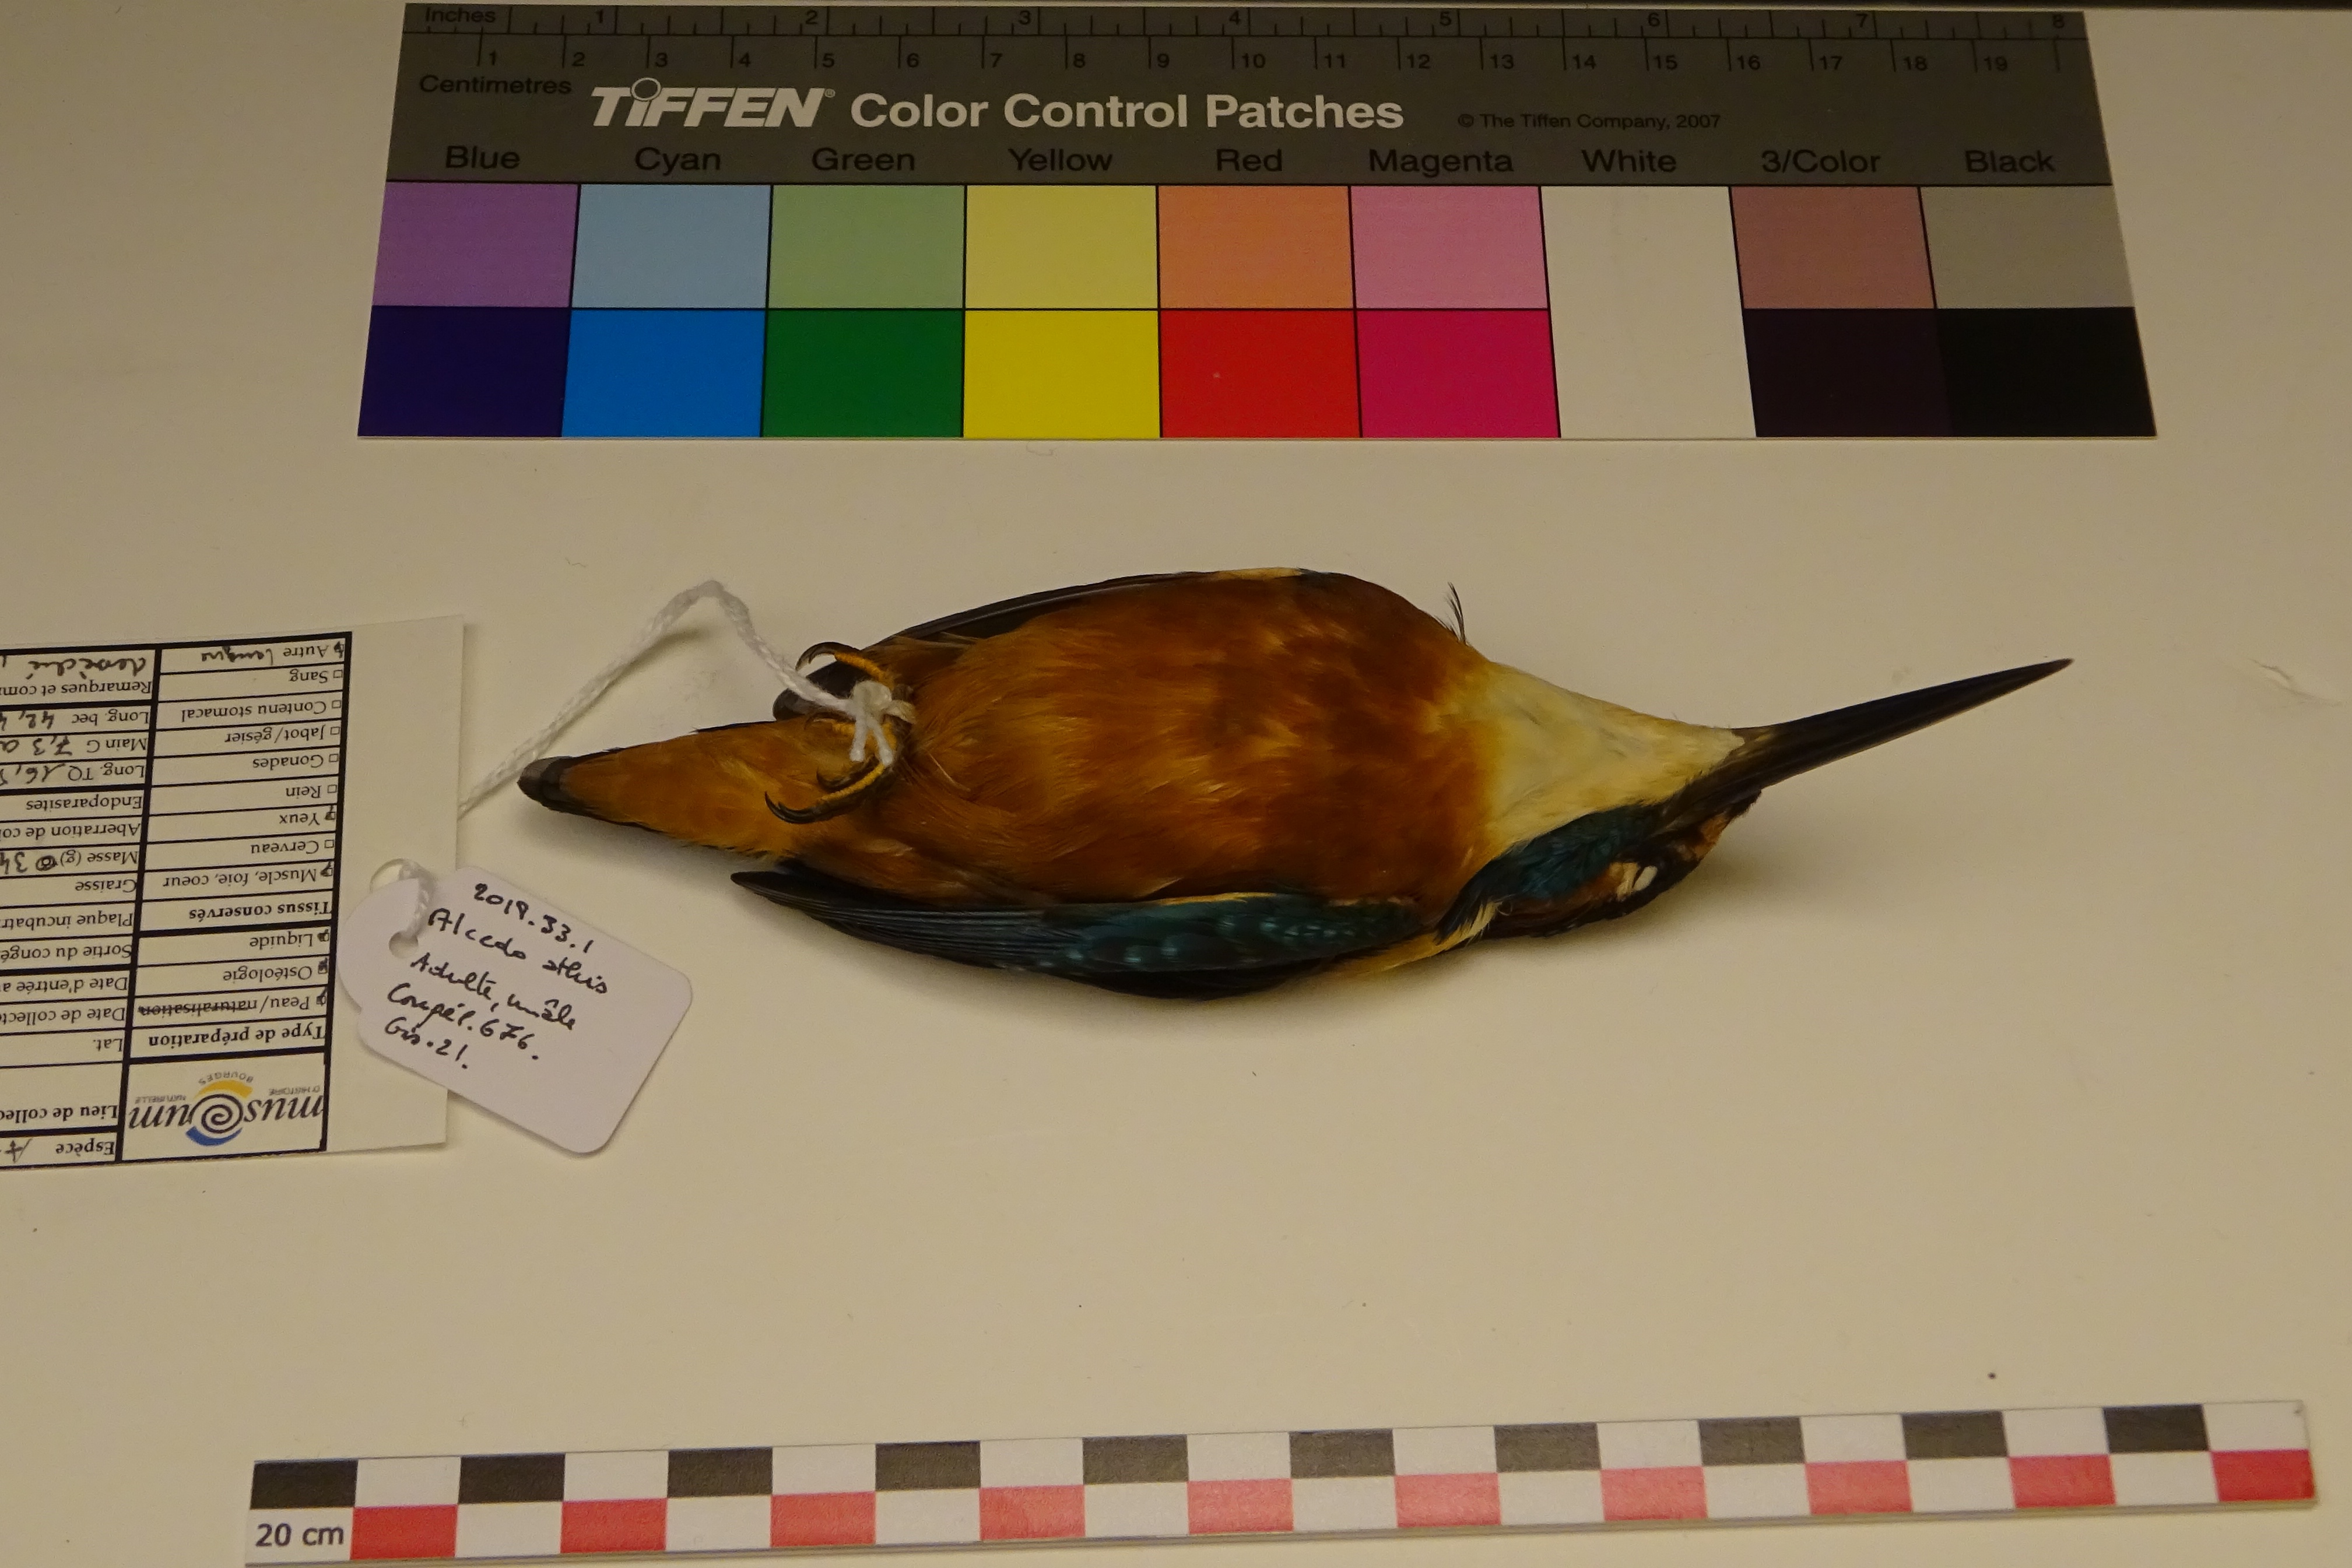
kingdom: Animalia
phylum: Chordata
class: Aves
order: Coraciiformes
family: Alcedinidae
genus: Alcedo
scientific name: Alcedo atthis
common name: Common kingfisher
